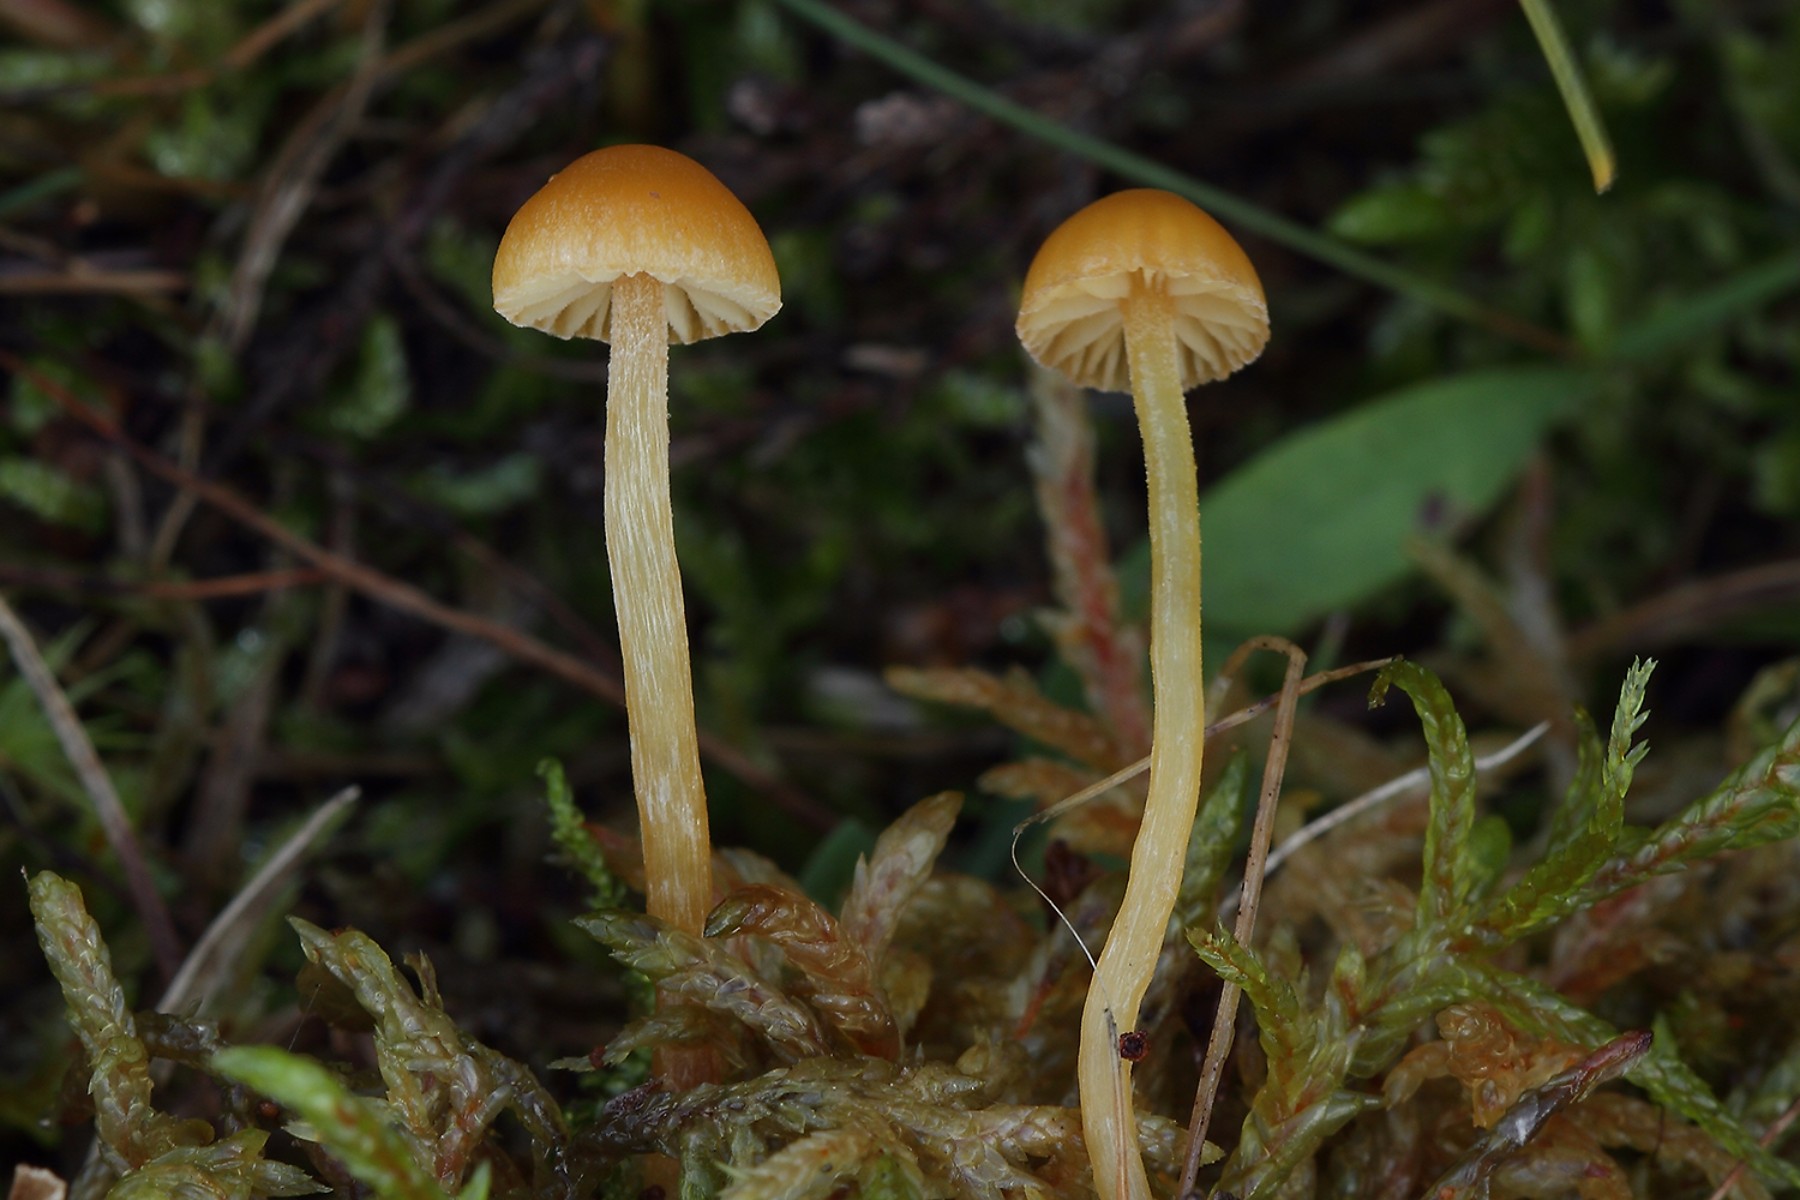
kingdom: Fungi
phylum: Basidiomycota
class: Agaricomycetes
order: Agaricales
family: Hymenogastraceae
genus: Galerina
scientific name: Galerina pumila
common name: honninggul hjelmhat
